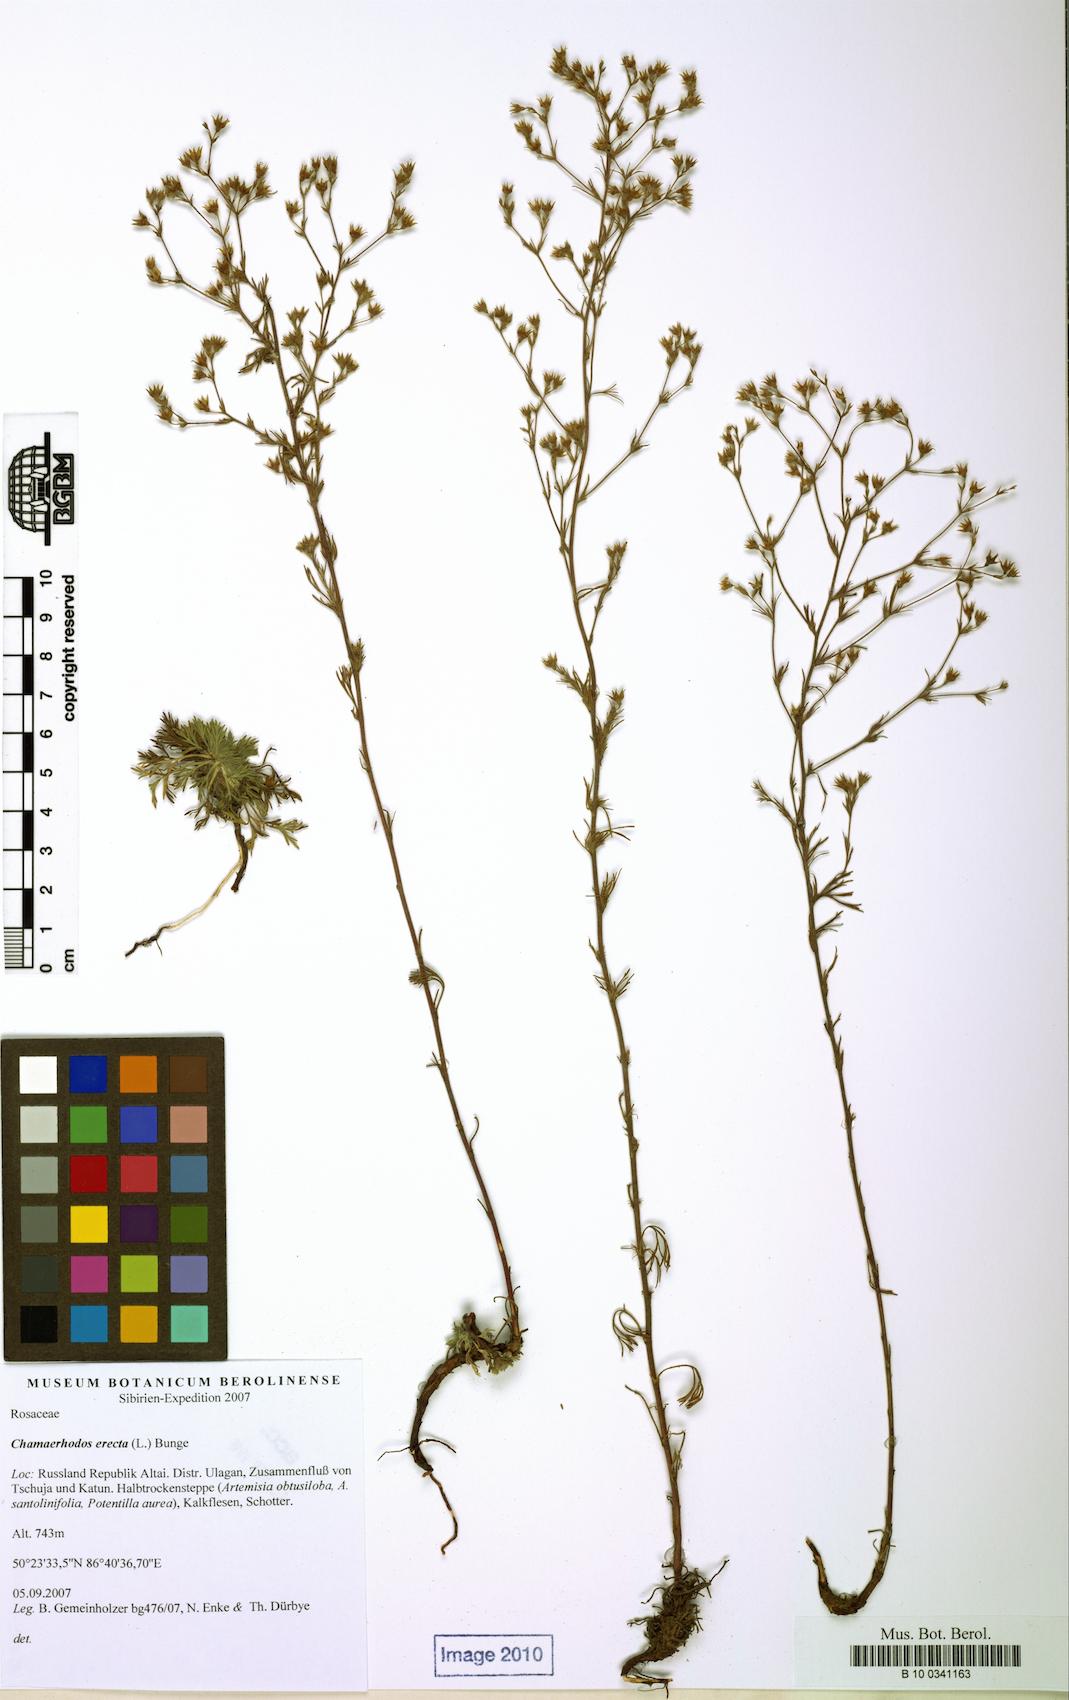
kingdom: Plantae
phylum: Tracheophyta
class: Magnoliopsida
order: Rosales
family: Rosaceae
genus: Chamaerhodos
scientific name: Chamaerhodos erecta
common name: American chamaerhodos
